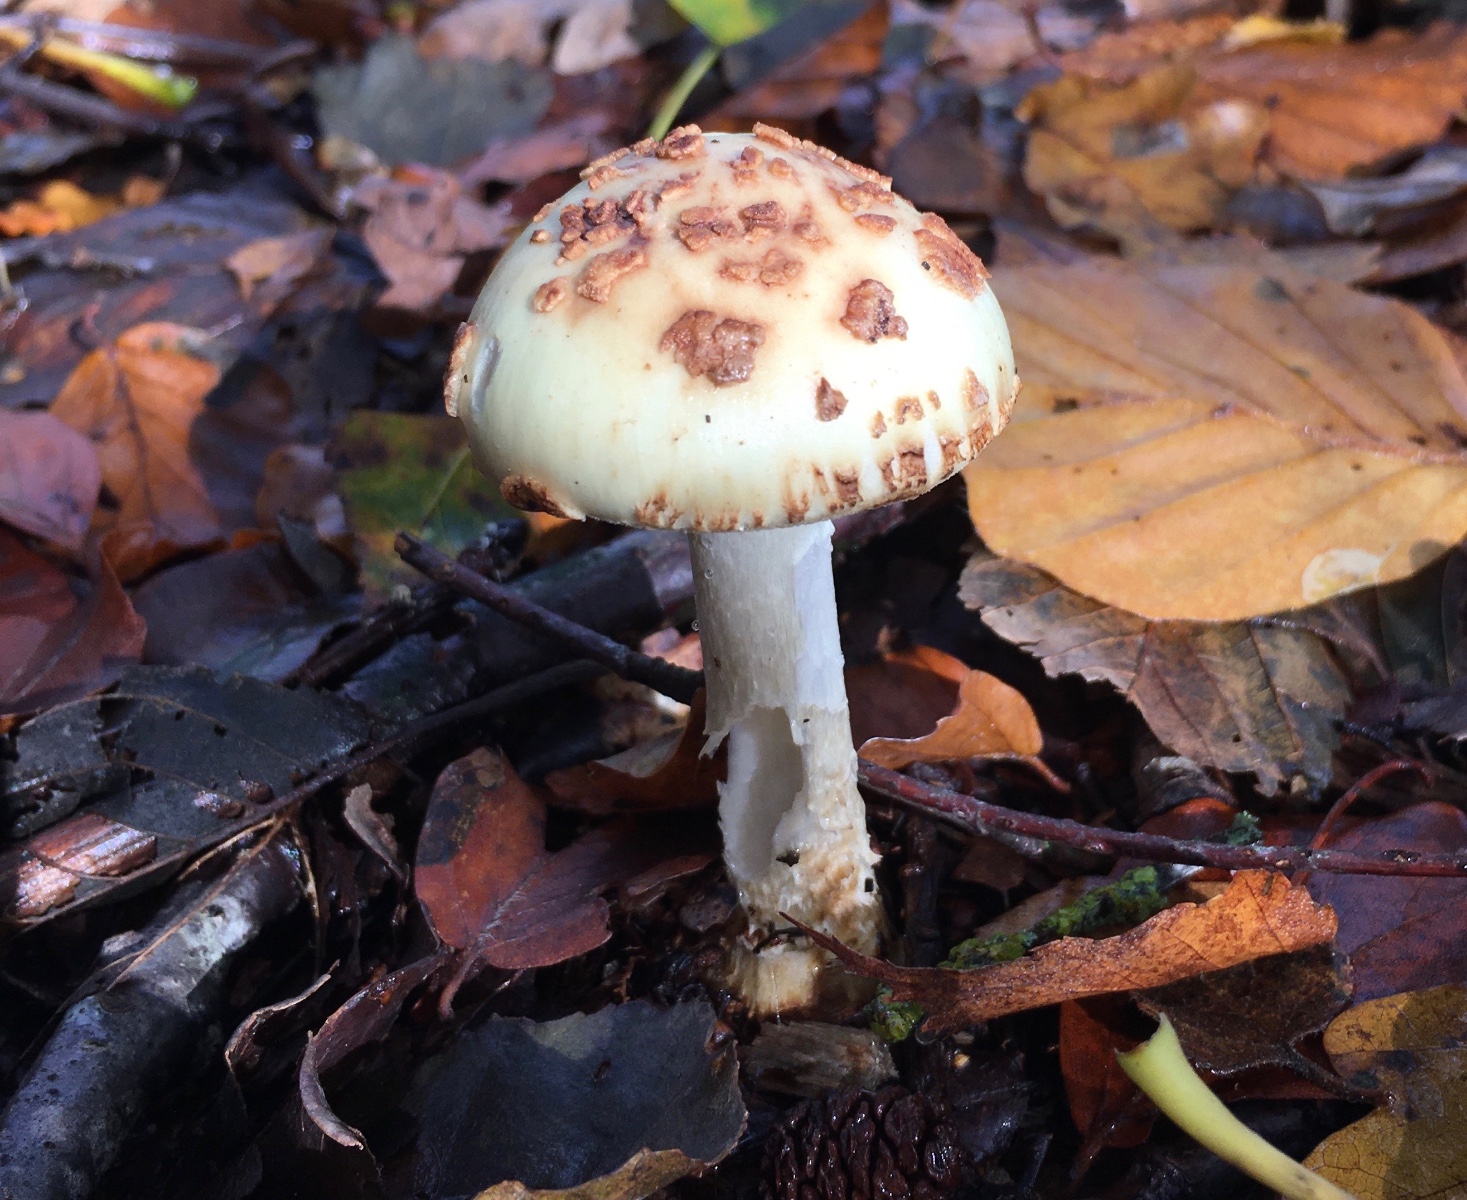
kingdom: Fungi
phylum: Basidiomycota
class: Agaricomycetes
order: Agaricales
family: Amanitaceae
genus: Amanita
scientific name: Amanita citrina
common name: kugleknoldet fluesvamp
